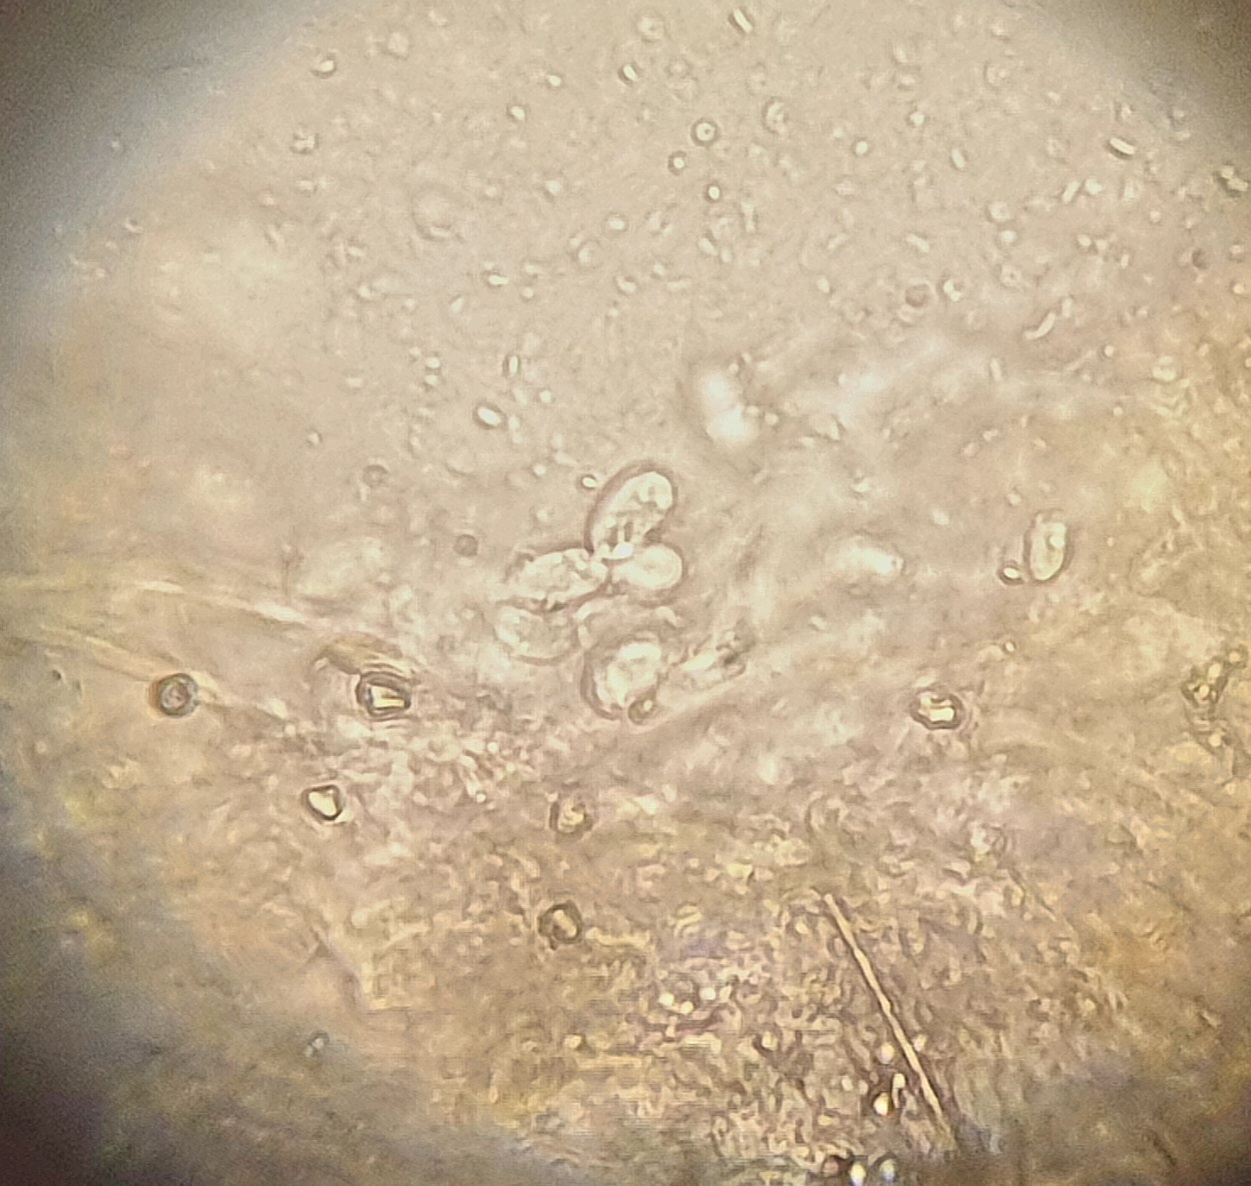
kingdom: Fungi
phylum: Basidiomycota
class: Agaricomycetes
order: Agaricales
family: Mycenaceae
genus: Mycena
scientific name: Mycena clavicularis
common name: fyrre-huesvamp
